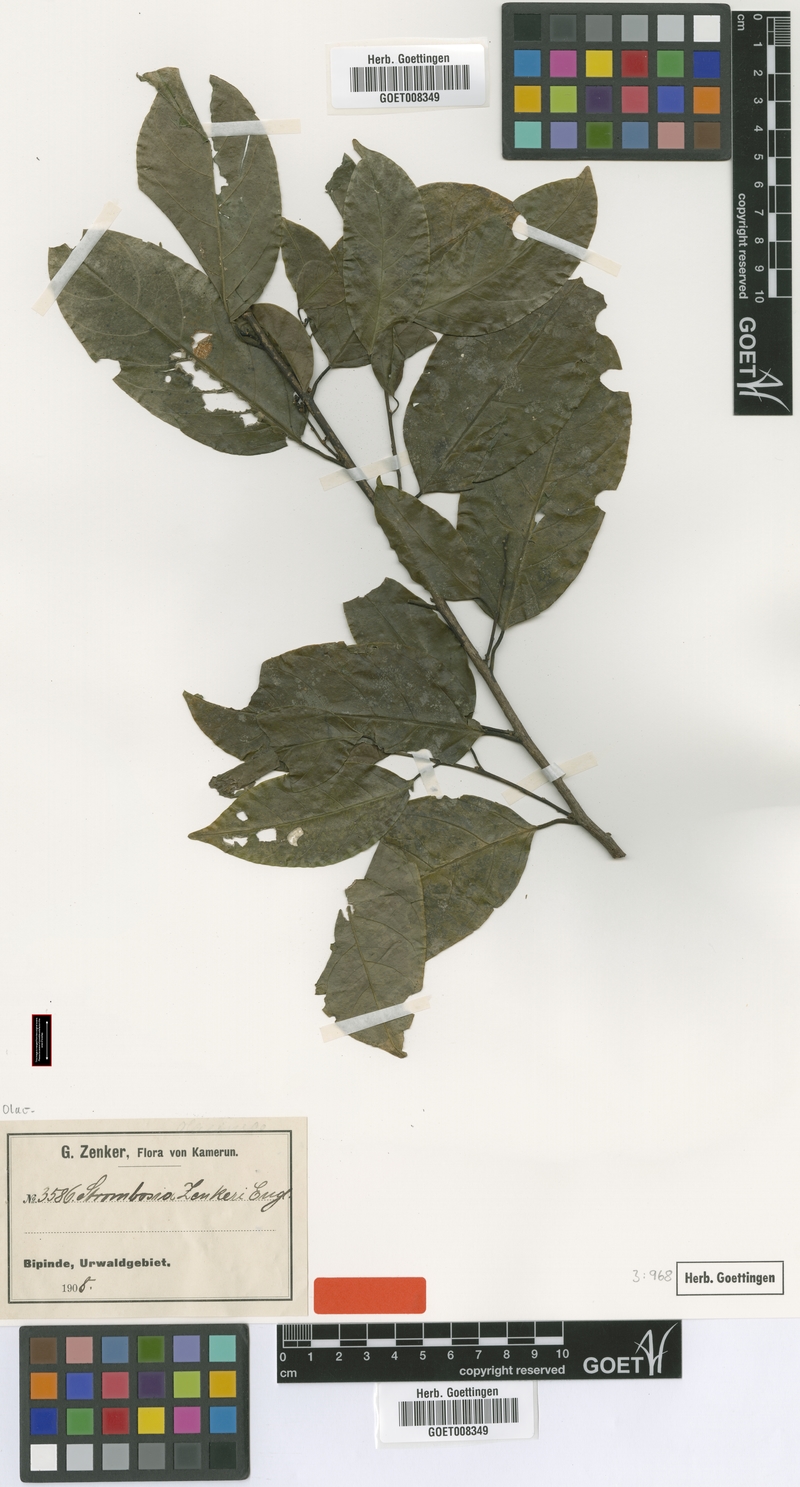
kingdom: Plantae
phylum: Tracheophyta
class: Magnoliopsida
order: Santalales
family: Strombosiaceae
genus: Strombosia
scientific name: Strombosia zenkeri
